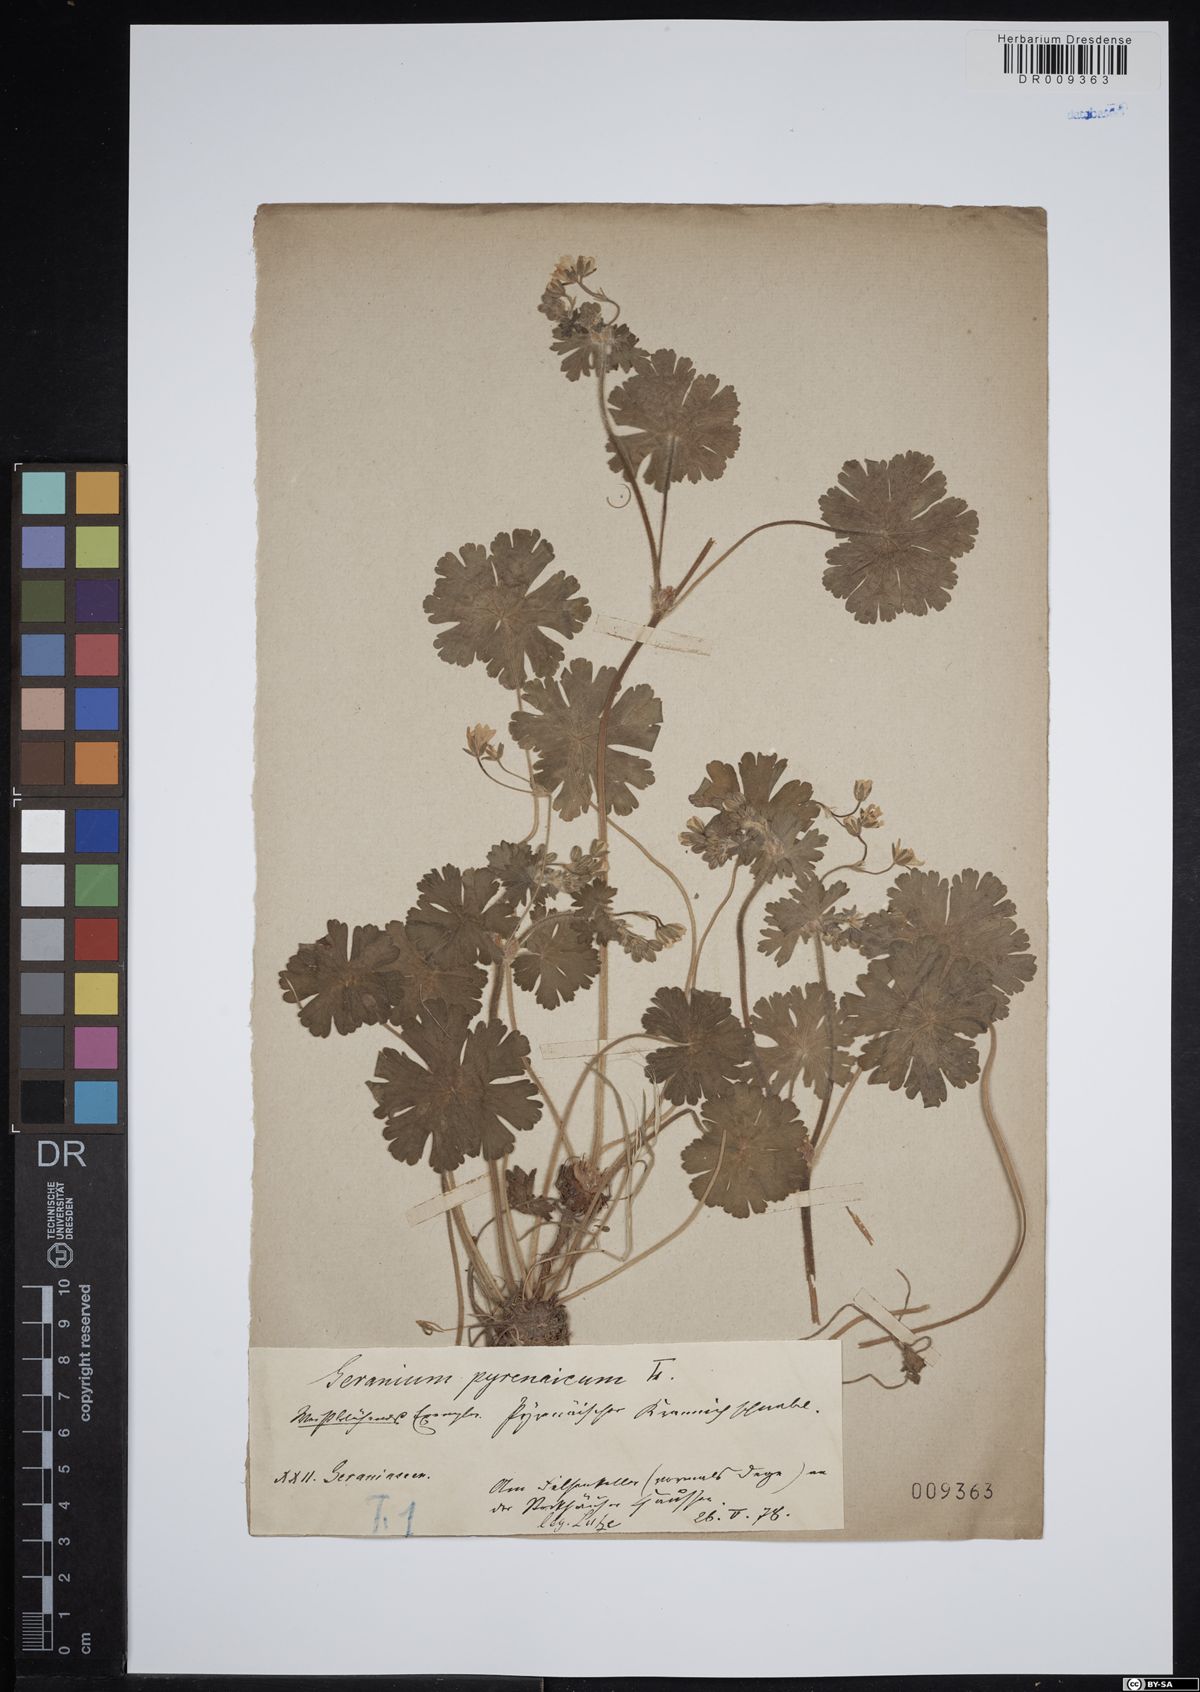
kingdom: Plantae
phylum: Tracheophyta
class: Magnoliopsida
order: Geraniales
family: Geraniaceae
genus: Geranium
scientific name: Geranium pyrenaicum
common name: Hedgerow crane's-bill
